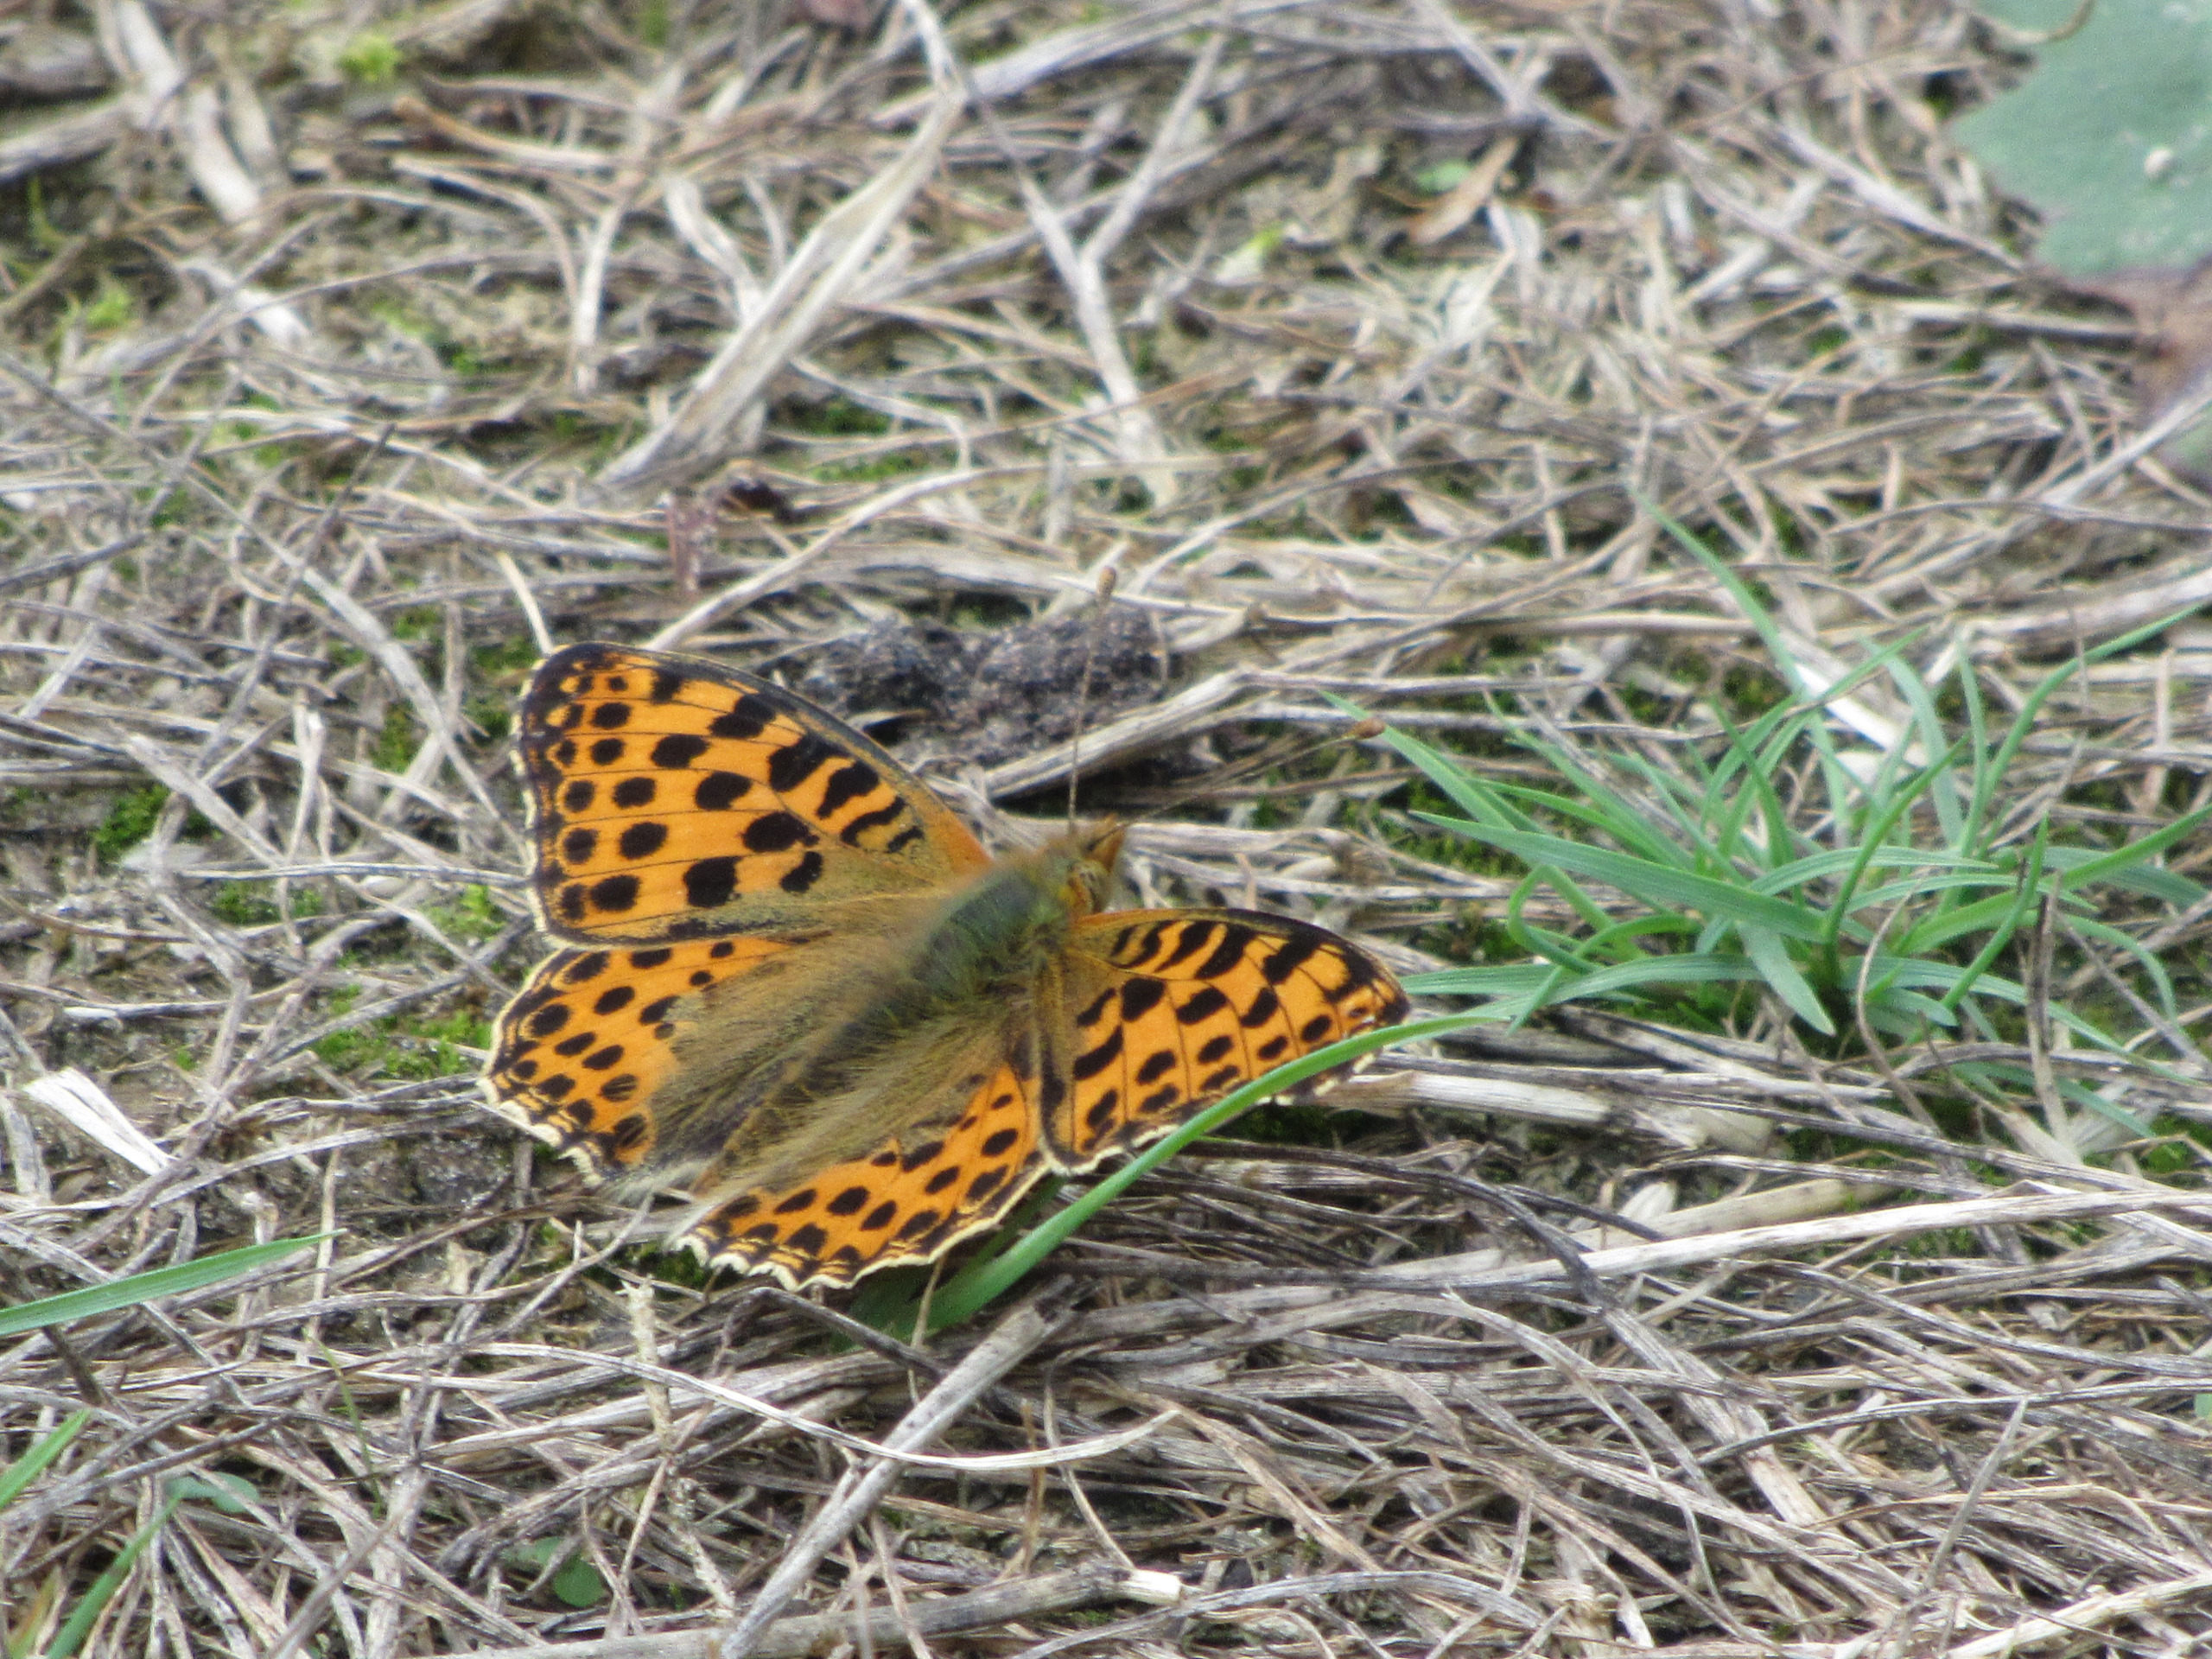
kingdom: Animalia
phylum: Arthropoda
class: Insecta
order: Lepidoptera
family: Nymphalidae
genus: Issoria
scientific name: Issoria lathonia
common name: Storplettet perlemorsommerfugl
